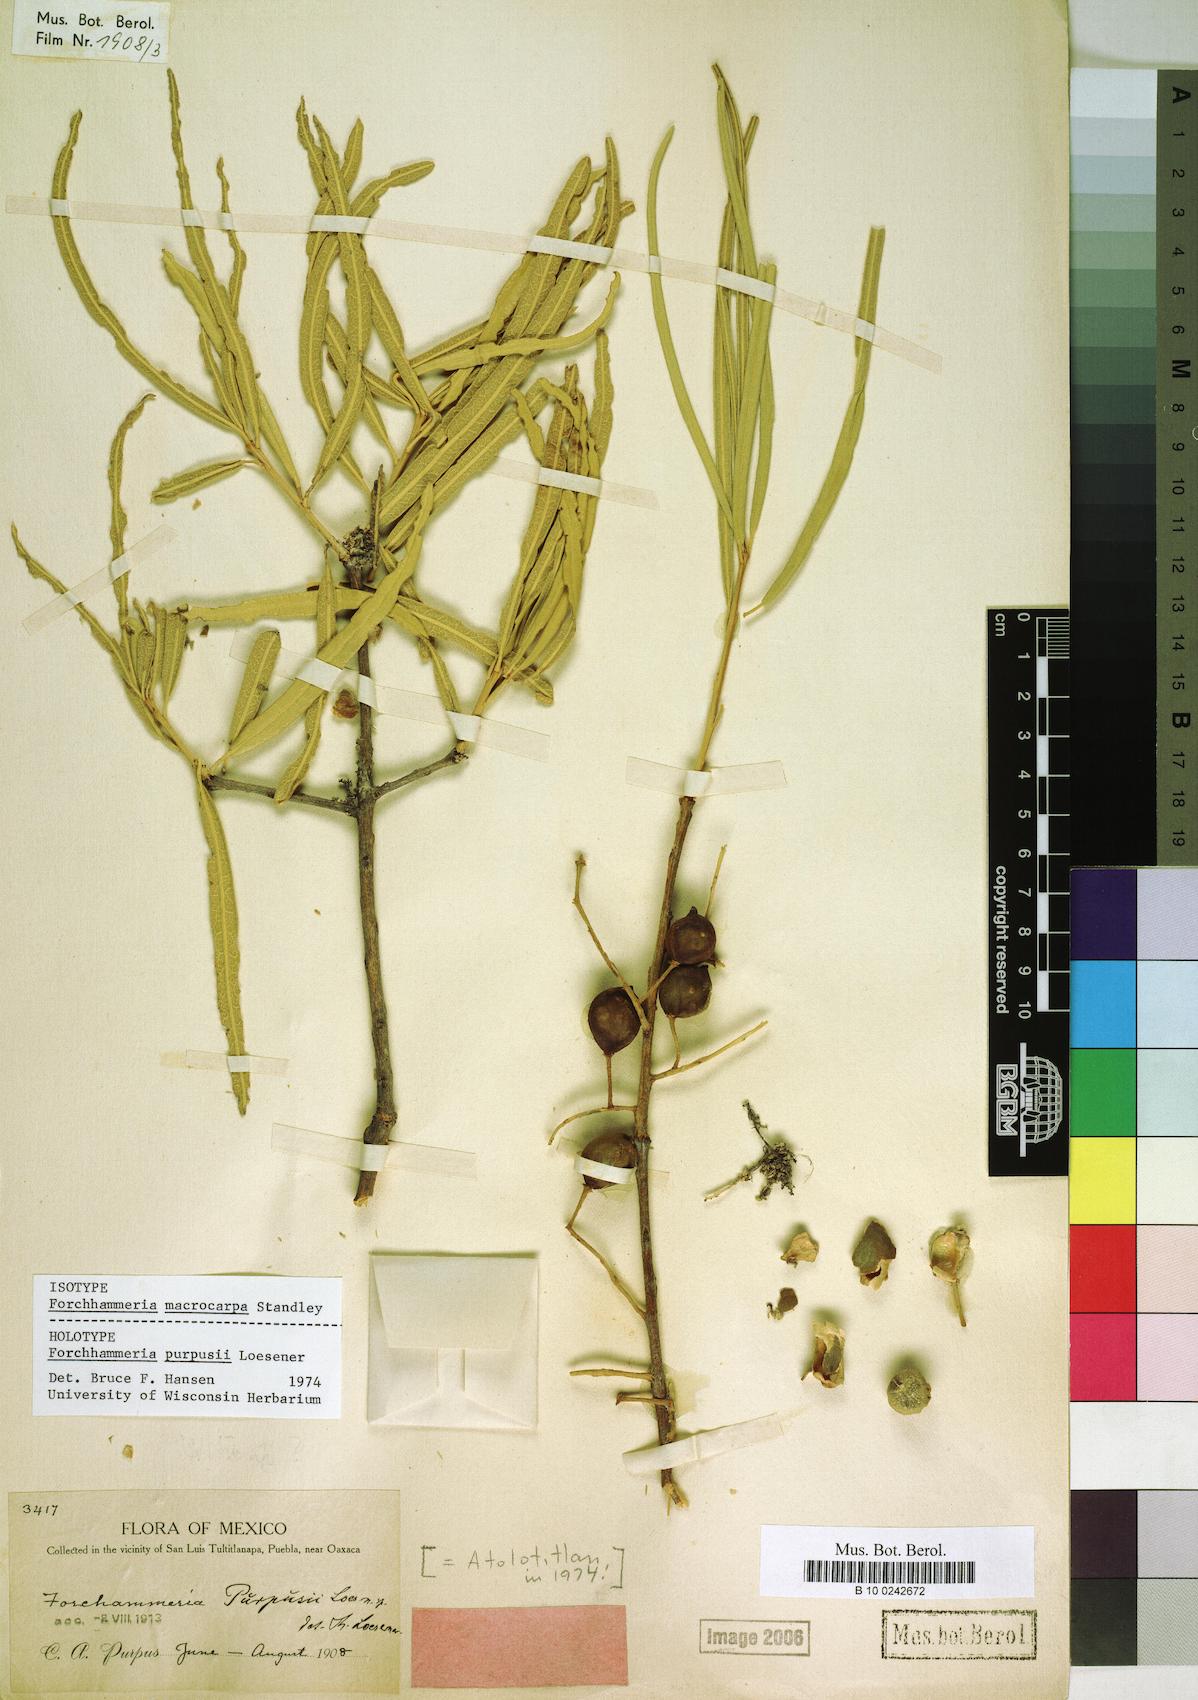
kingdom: Plantae
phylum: Tracheophyta
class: Magnoliopsida
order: Brassicales
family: Stixaceae
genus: Forchhammeria
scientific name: Forchhammeria macrocarpa
